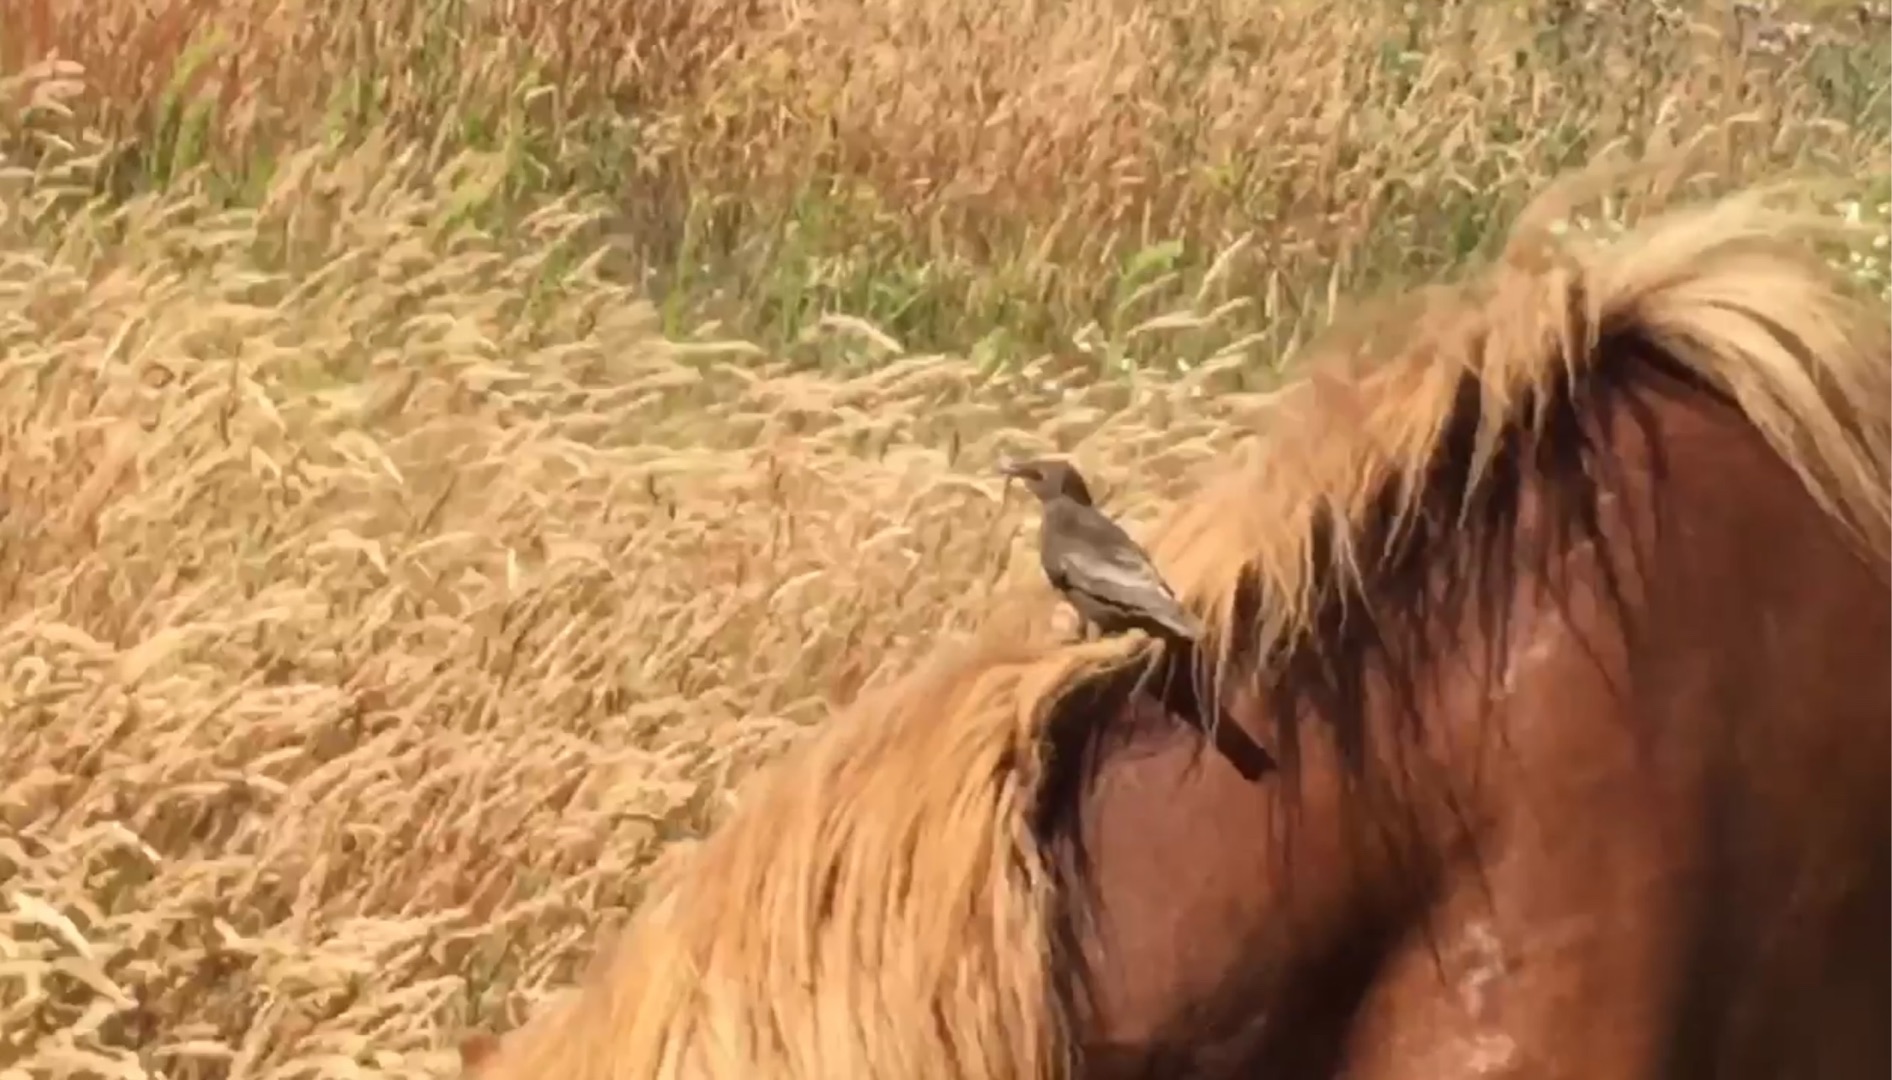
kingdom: Animalia
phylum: Chordata
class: Aves
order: Passeriformes
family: Sturnidae
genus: Sturnus
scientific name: Sturnus vulgaris
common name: Stær
